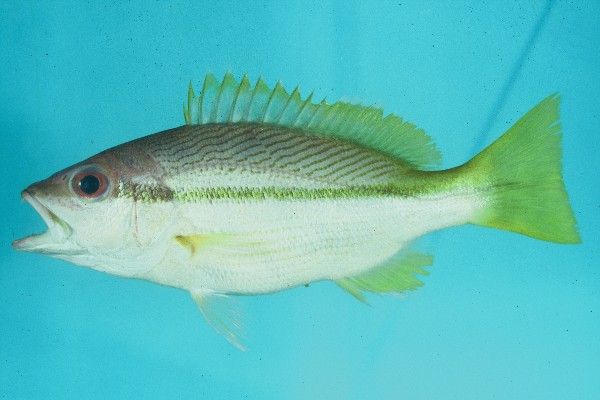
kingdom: Animalia
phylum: Chordata
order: Perciformes
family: Lutjanidae
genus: Lutjanus
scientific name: Lutjanus lutjanus
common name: Bigeye snapper
